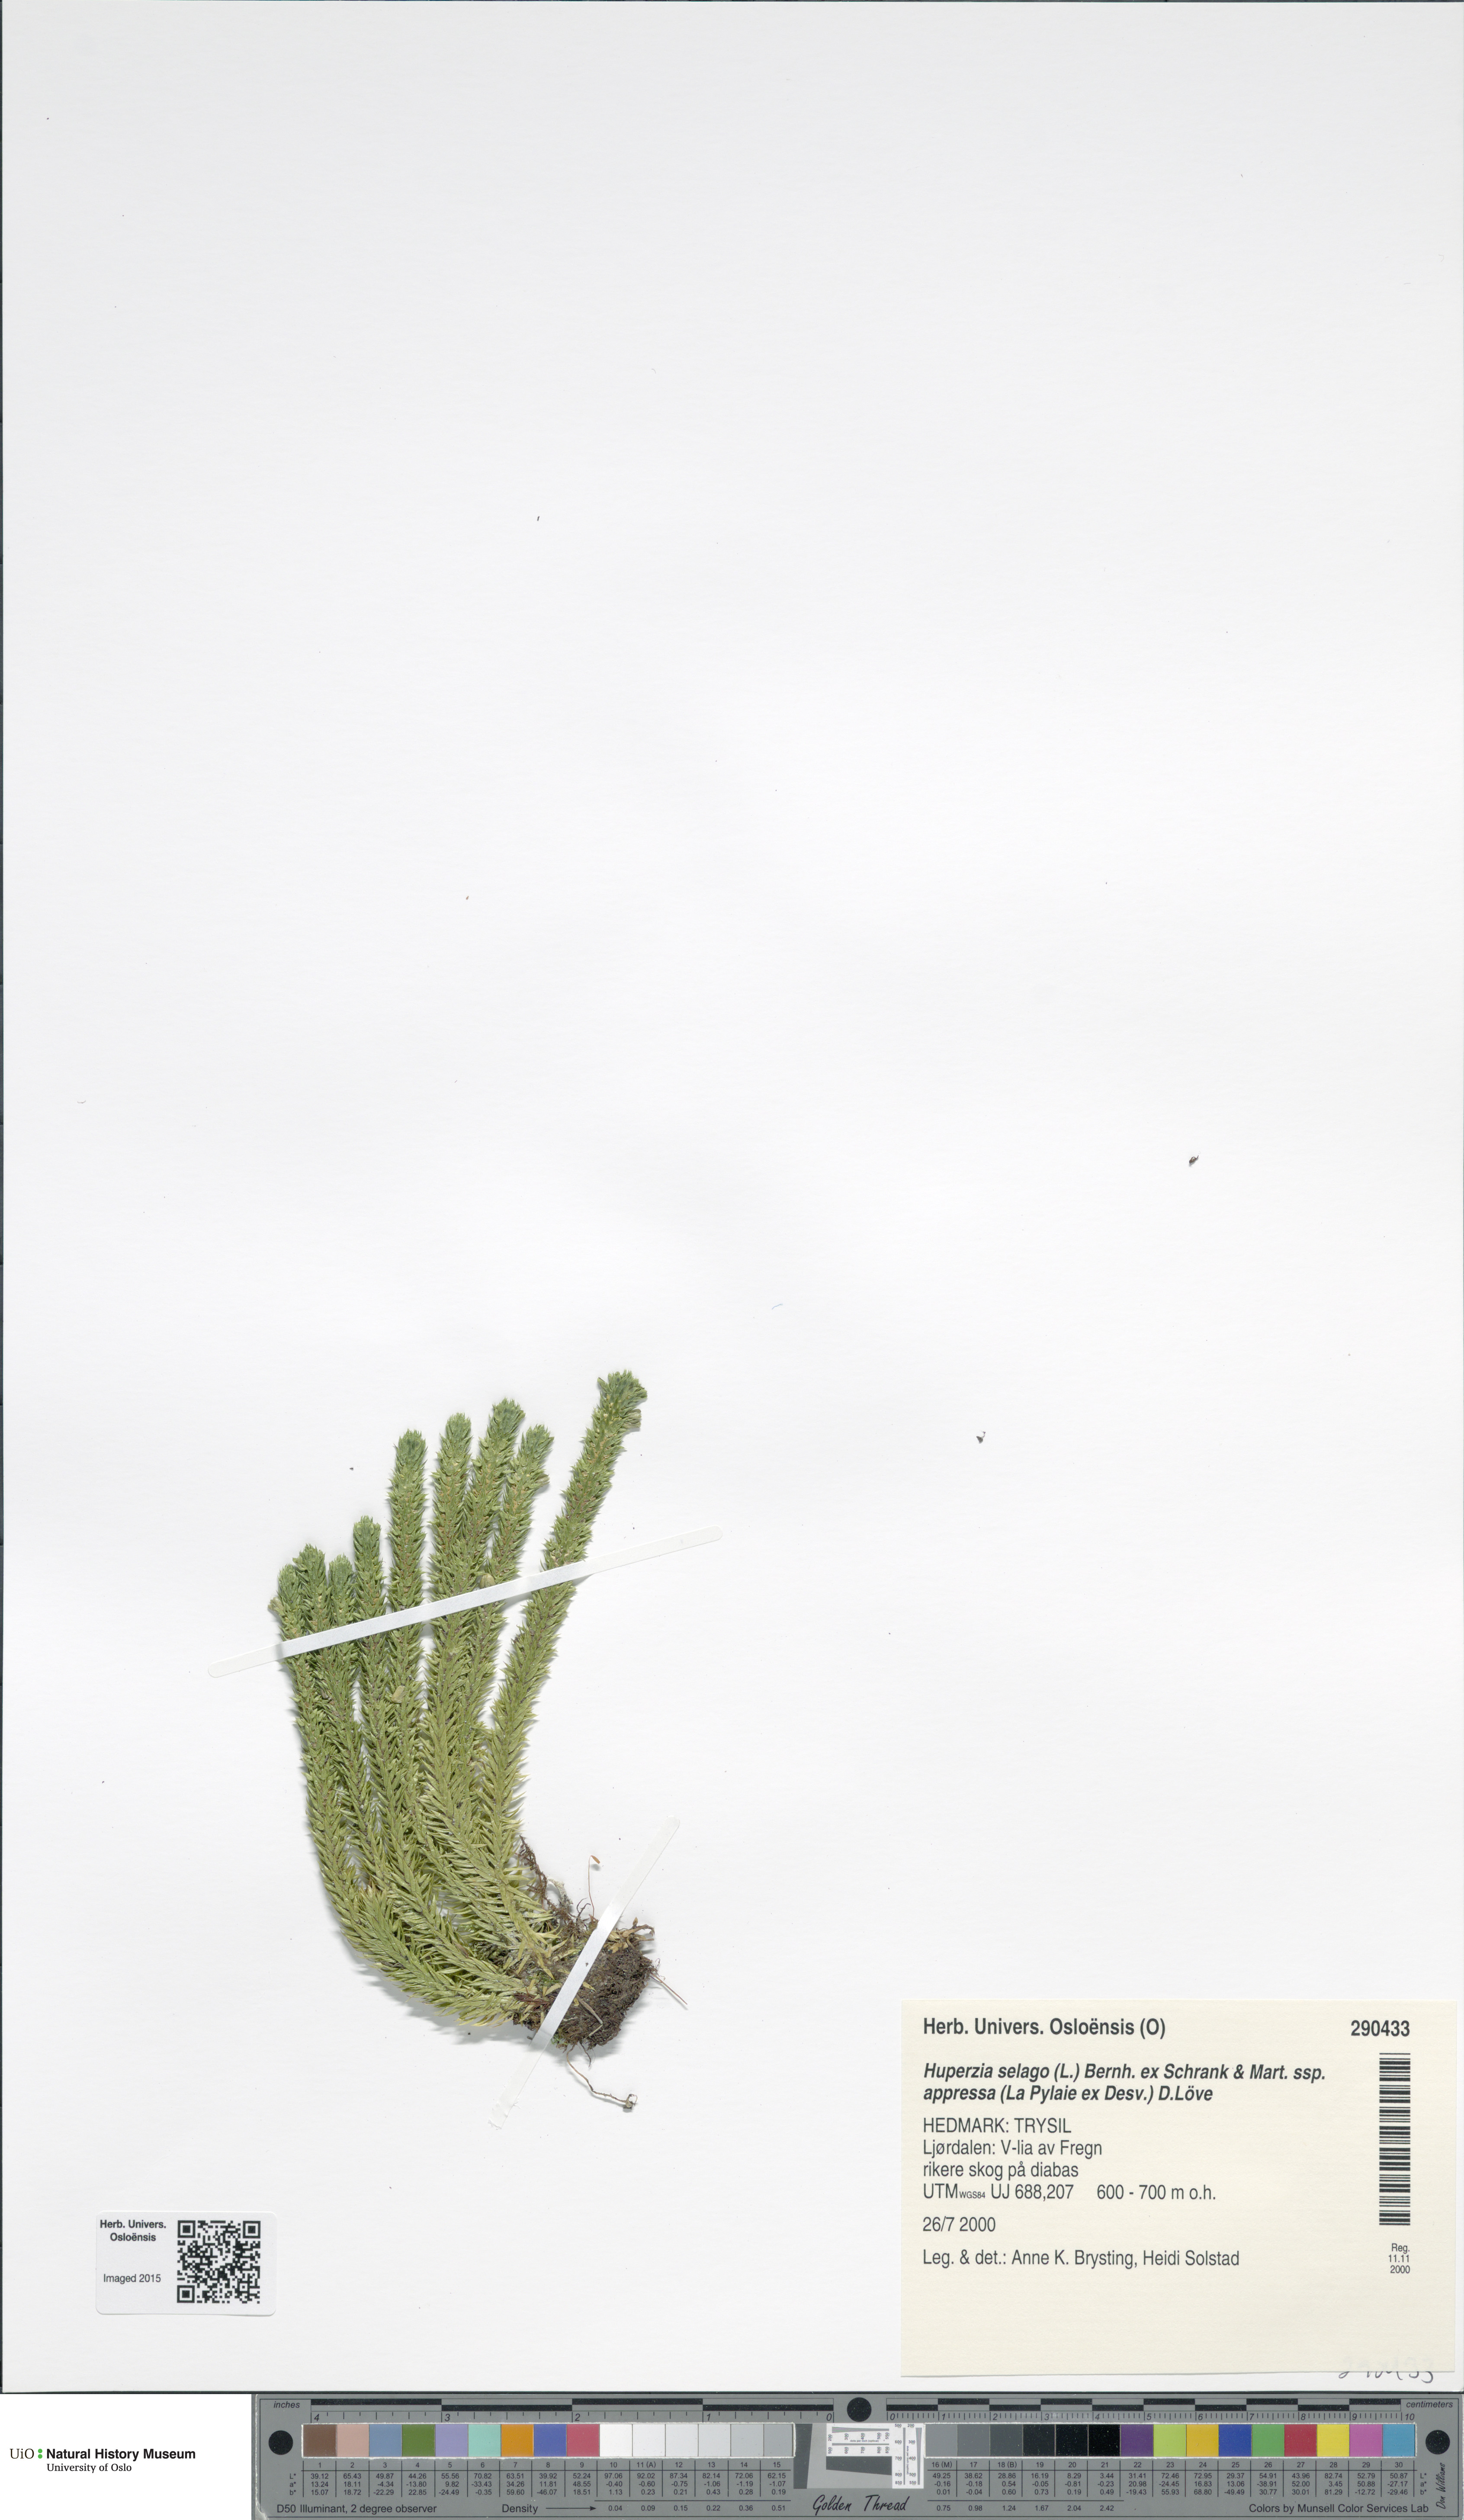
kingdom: Plantae
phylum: Tracheophyta
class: Lycopodiopsida
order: Lycopodiales
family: Lycopodiaceae
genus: Huperzia
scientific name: Huperzia selago
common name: Northern firmoss
